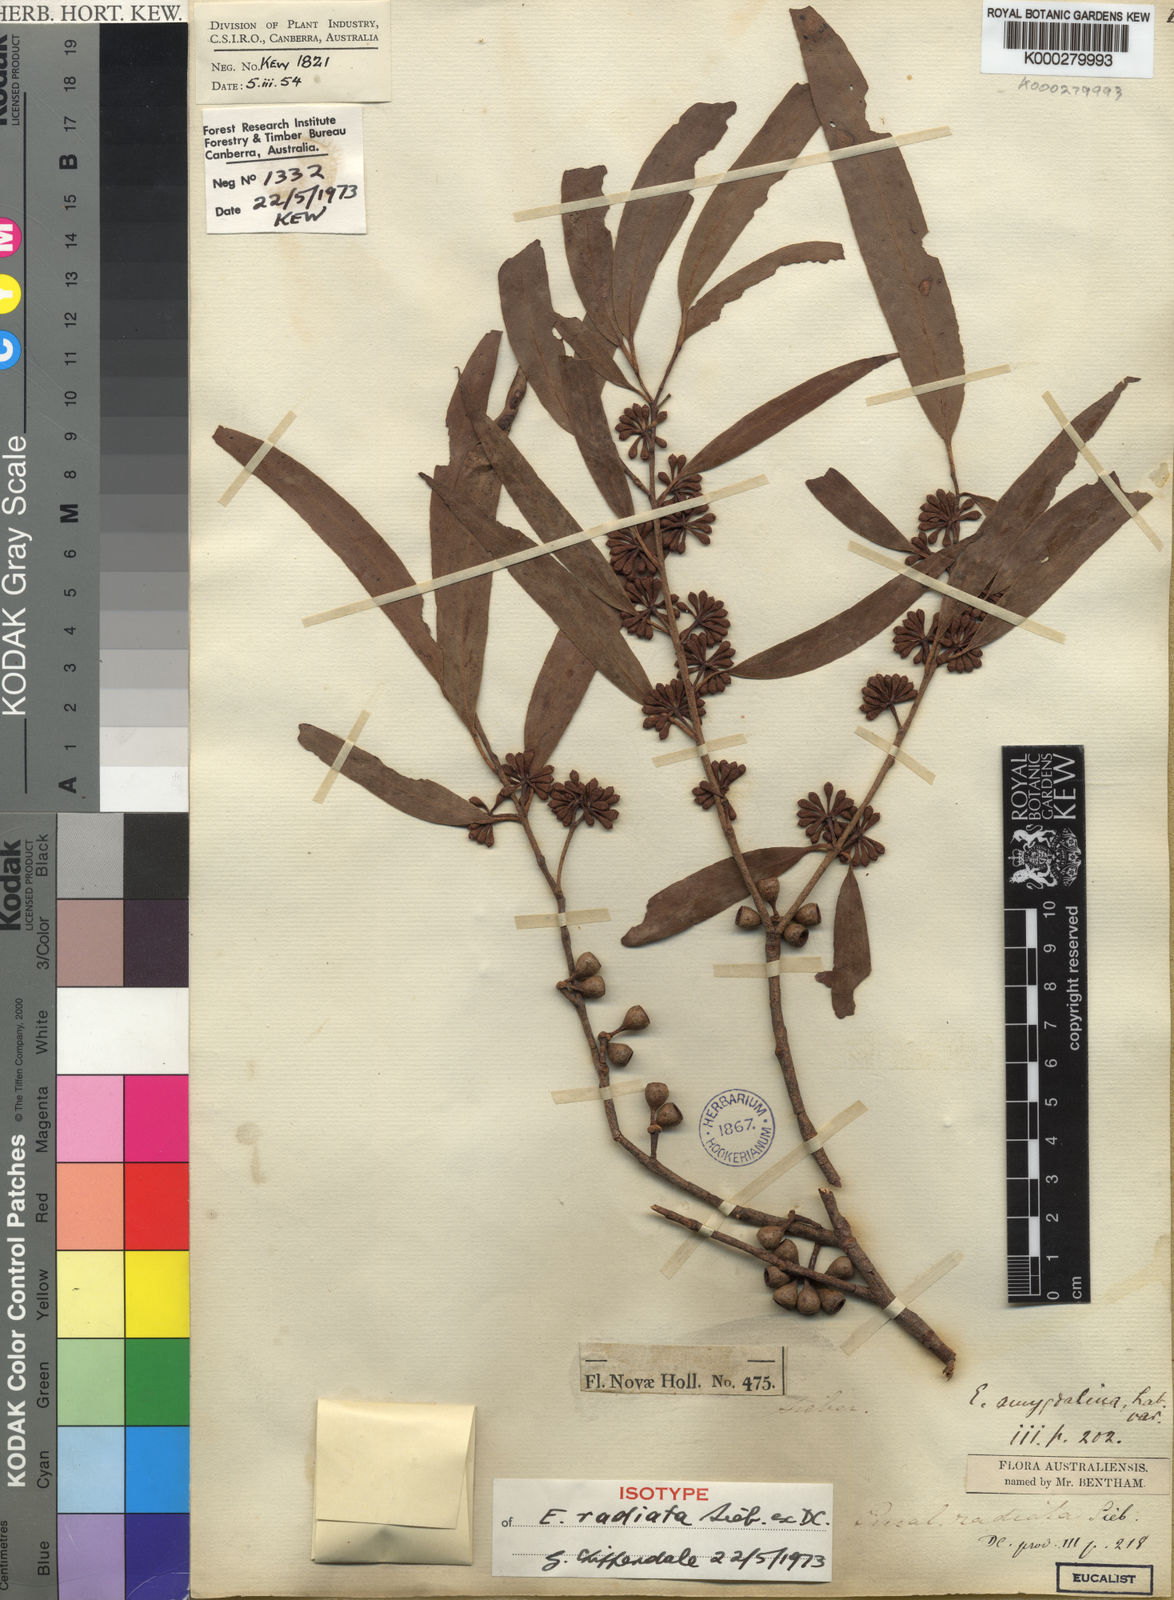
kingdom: Plantae
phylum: Tracheophyta
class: Magnoliopsida
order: Myrtales
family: Myrtaceae
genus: Eucalyptus
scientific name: Eucalyptus radiata
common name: Narrow-leaved-peppermint
